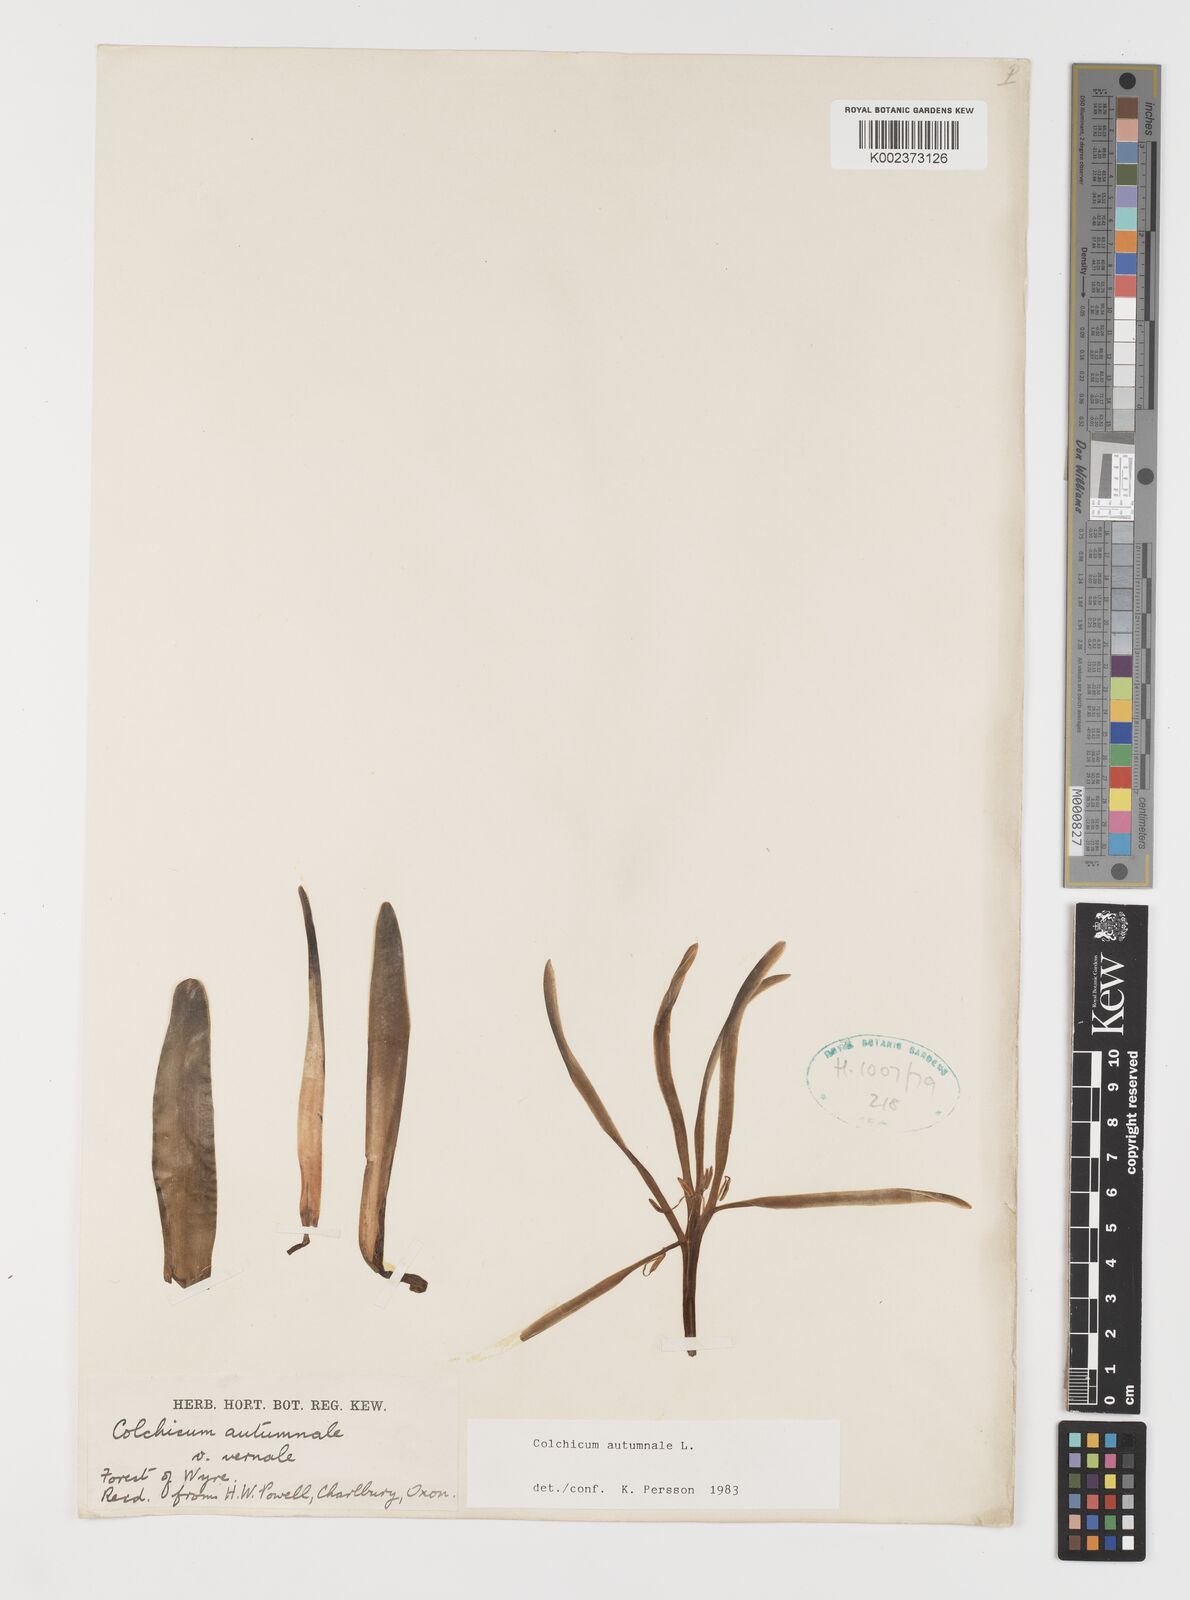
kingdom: Plantae
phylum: Tracheophyta
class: Liliopsida
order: Liliales
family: Colchicaceae
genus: Colchicum
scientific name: Colchicum autumnale
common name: Autumn crocus
